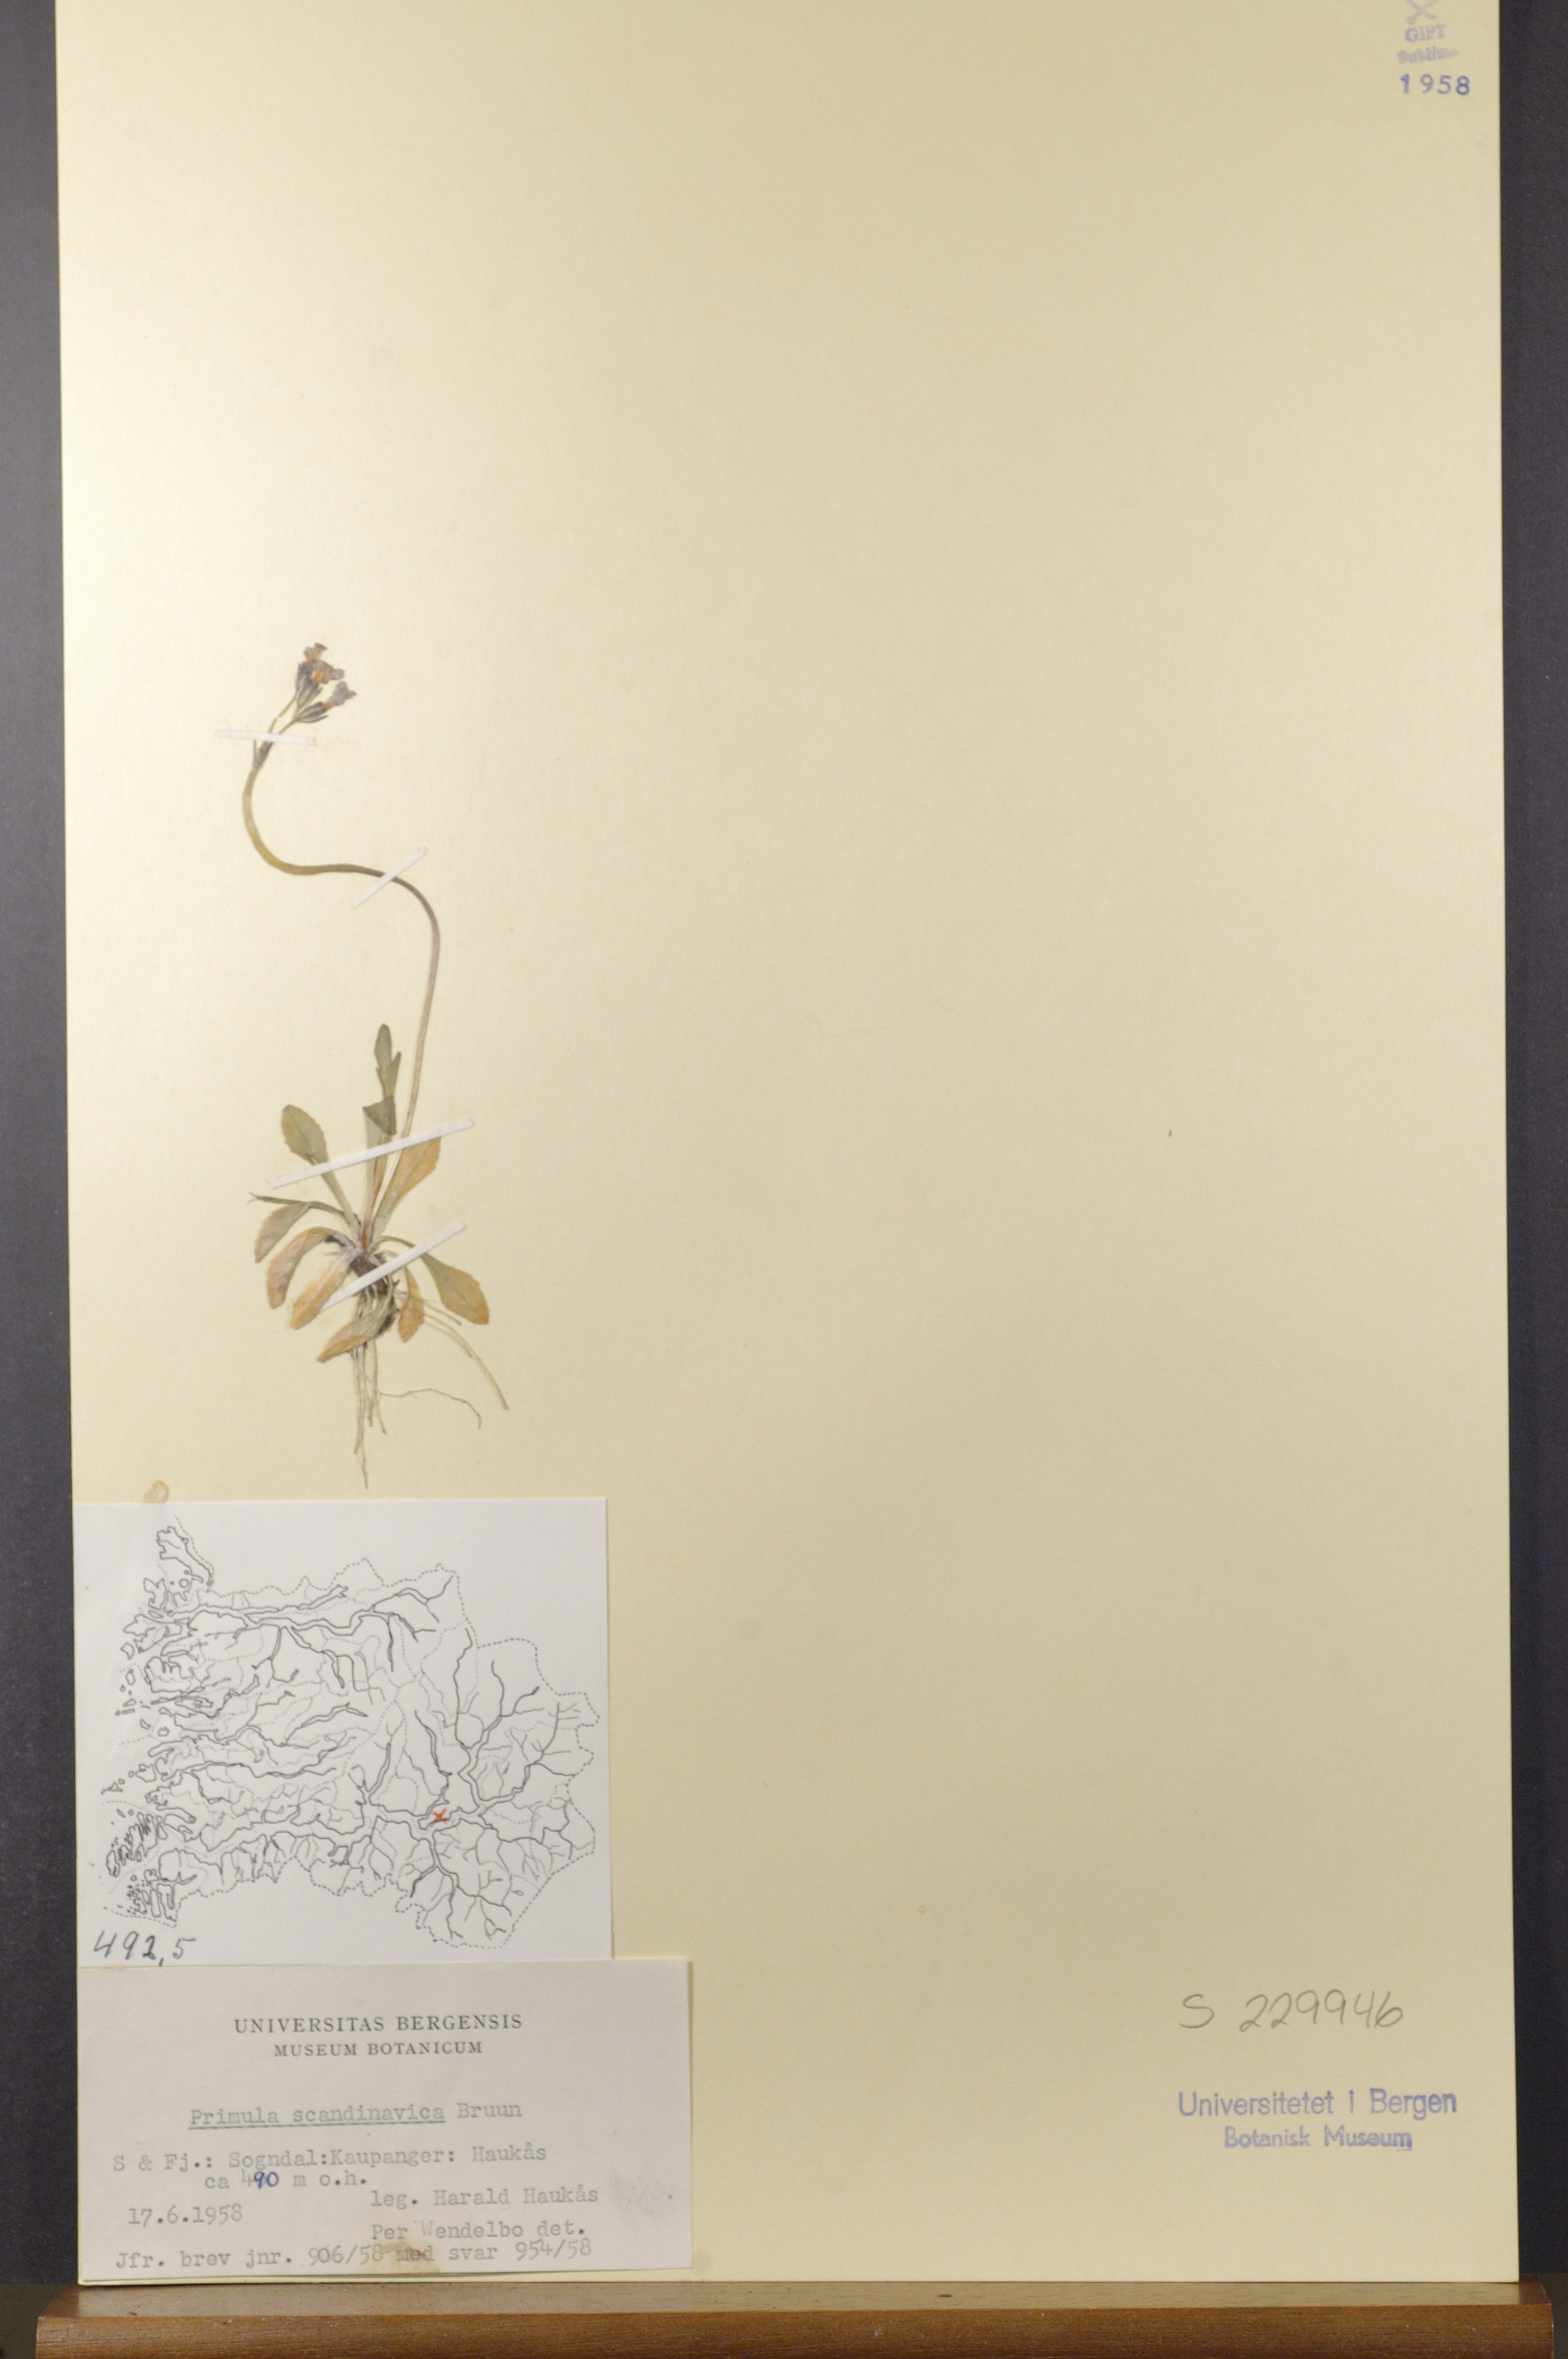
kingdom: Plantae
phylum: Tracheophyta
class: Magnoliopsida
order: Ericales
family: Primulaceae
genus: Primula
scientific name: Primula scandinavica
